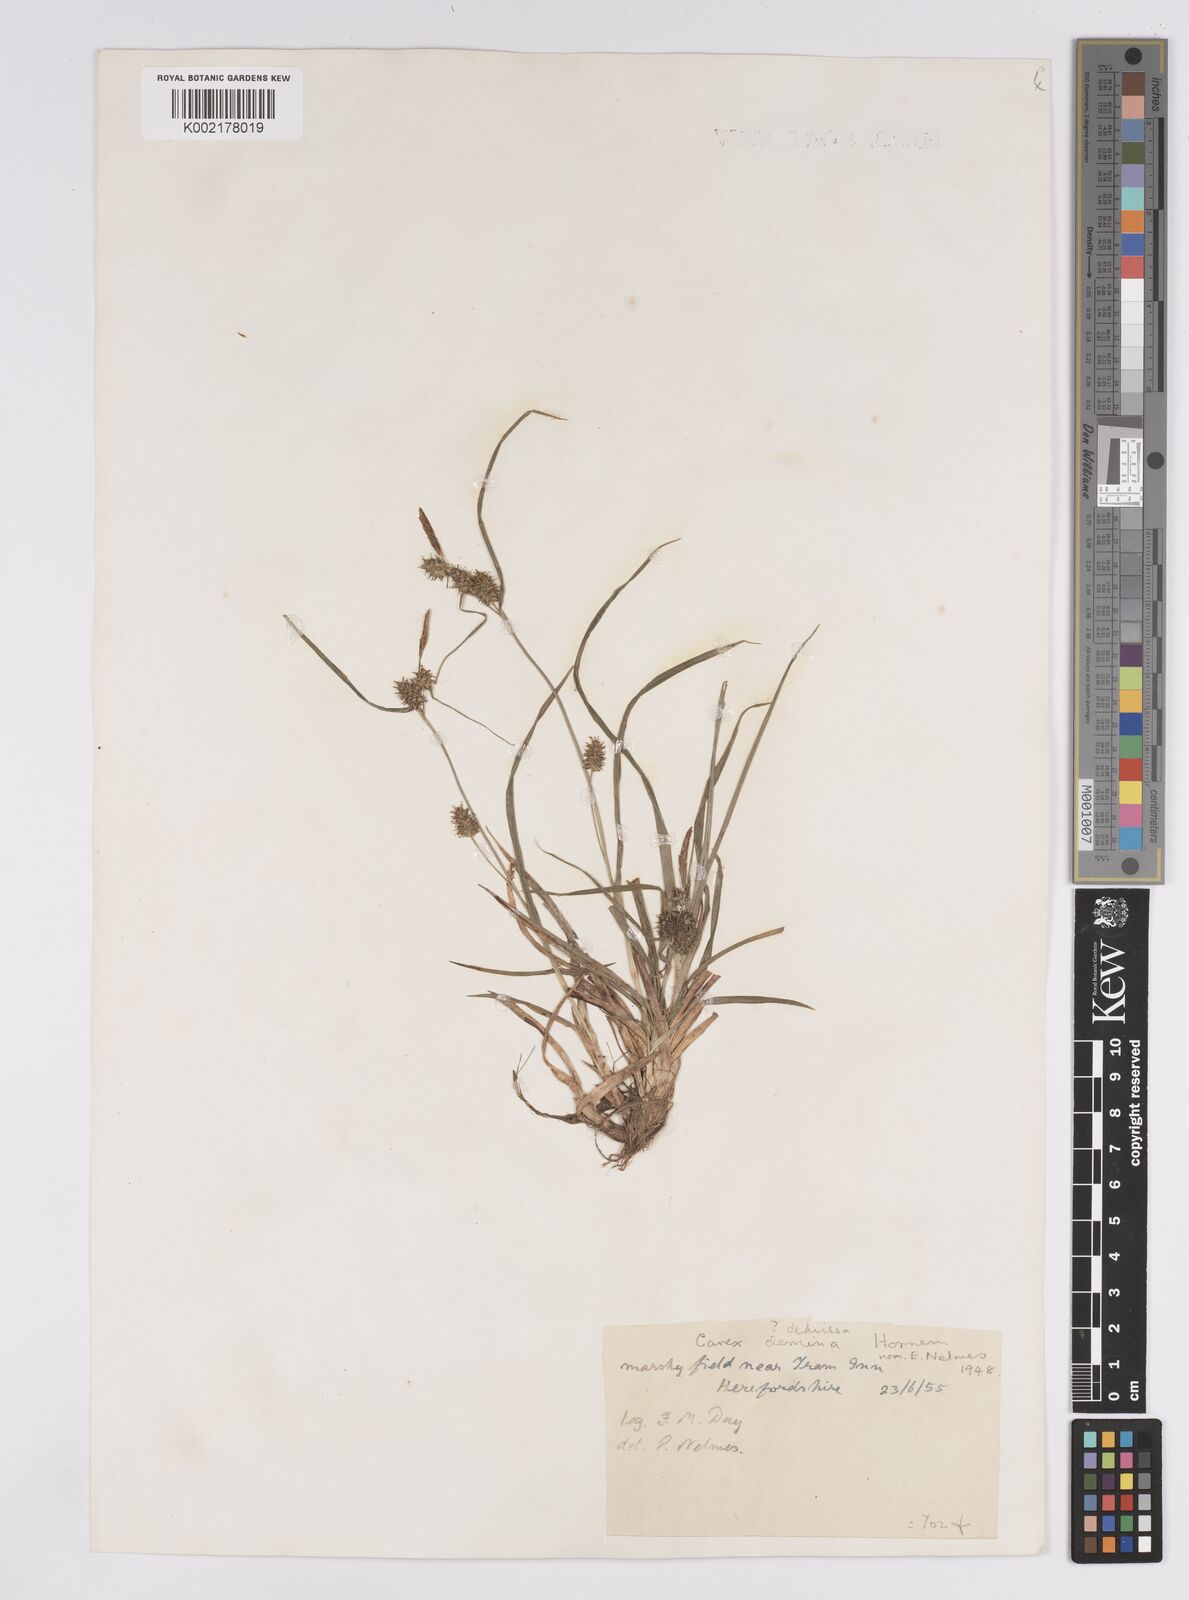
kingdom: Plantae
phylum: Tracheophyta
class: Liliopsida
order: Poales
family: Cyperaceae
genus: Carex
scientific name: Carex demissa
